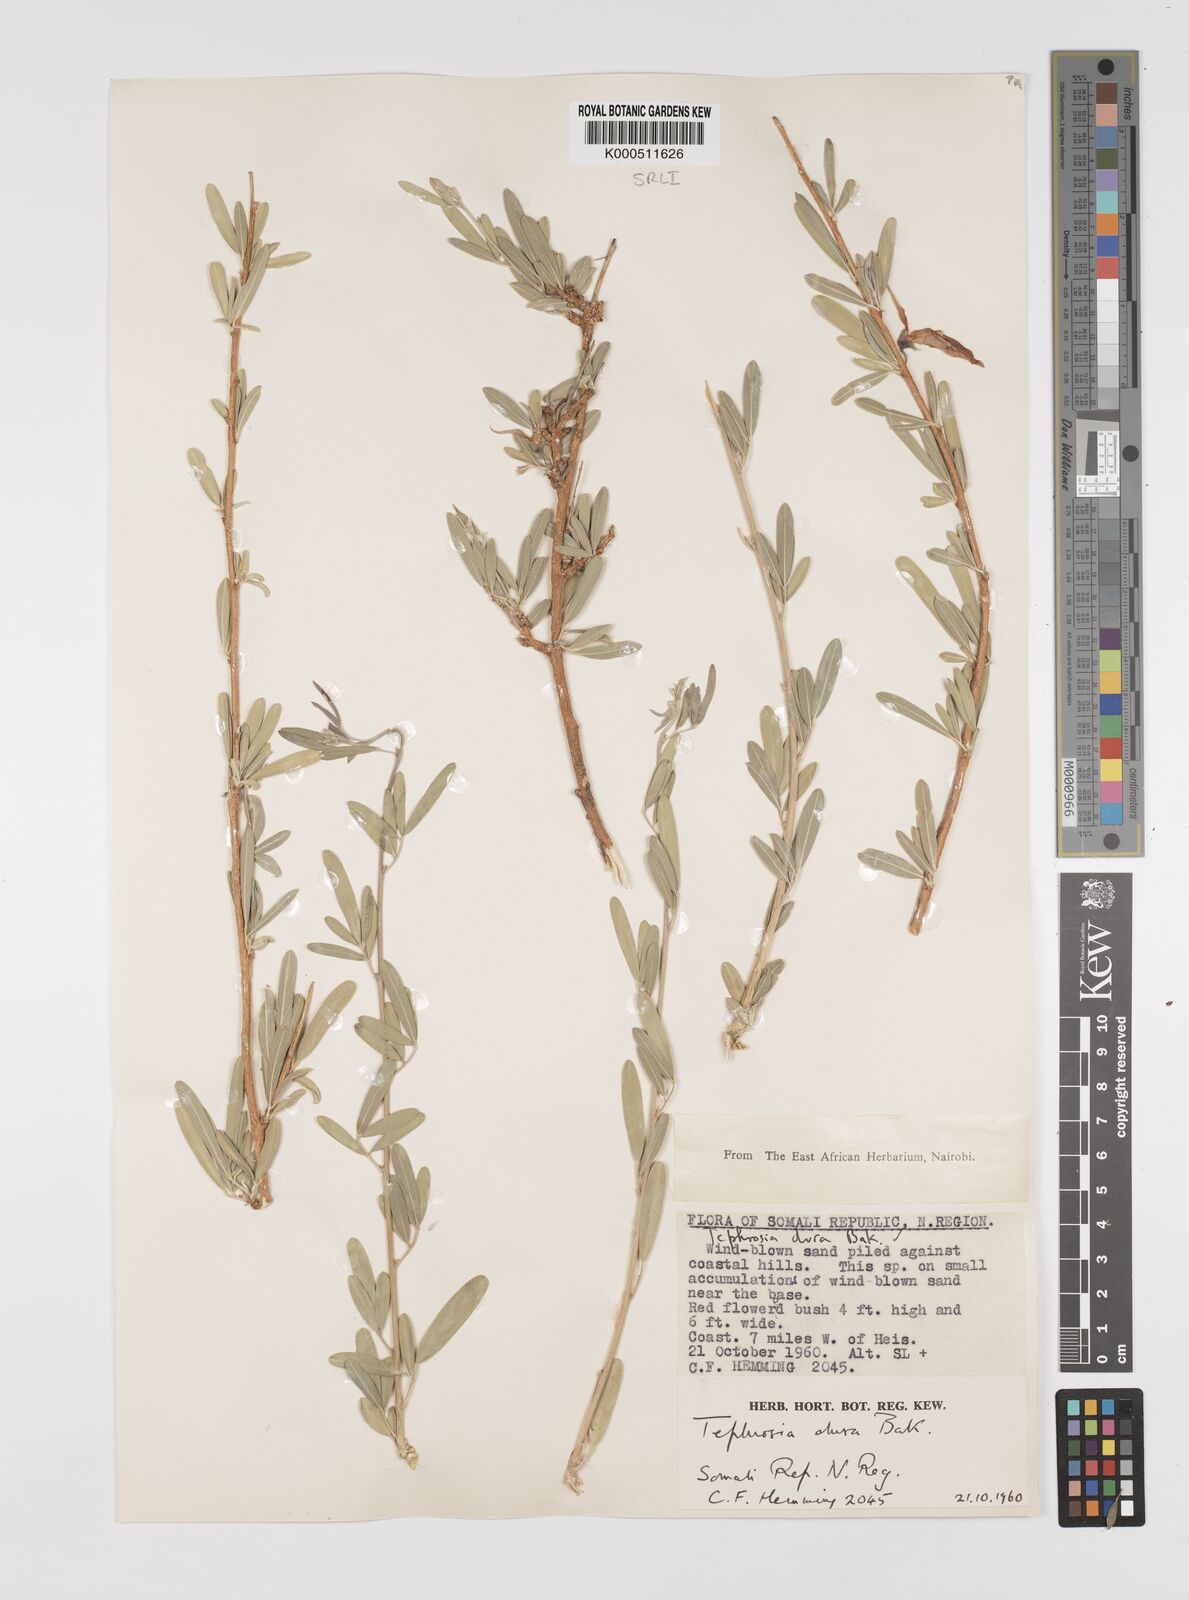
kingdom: Plantae
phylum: Tracheophyta
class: Magnoliopsida
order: Fabales
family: Fabaceae
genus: Tephrosia
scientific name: Tephrosia dura
